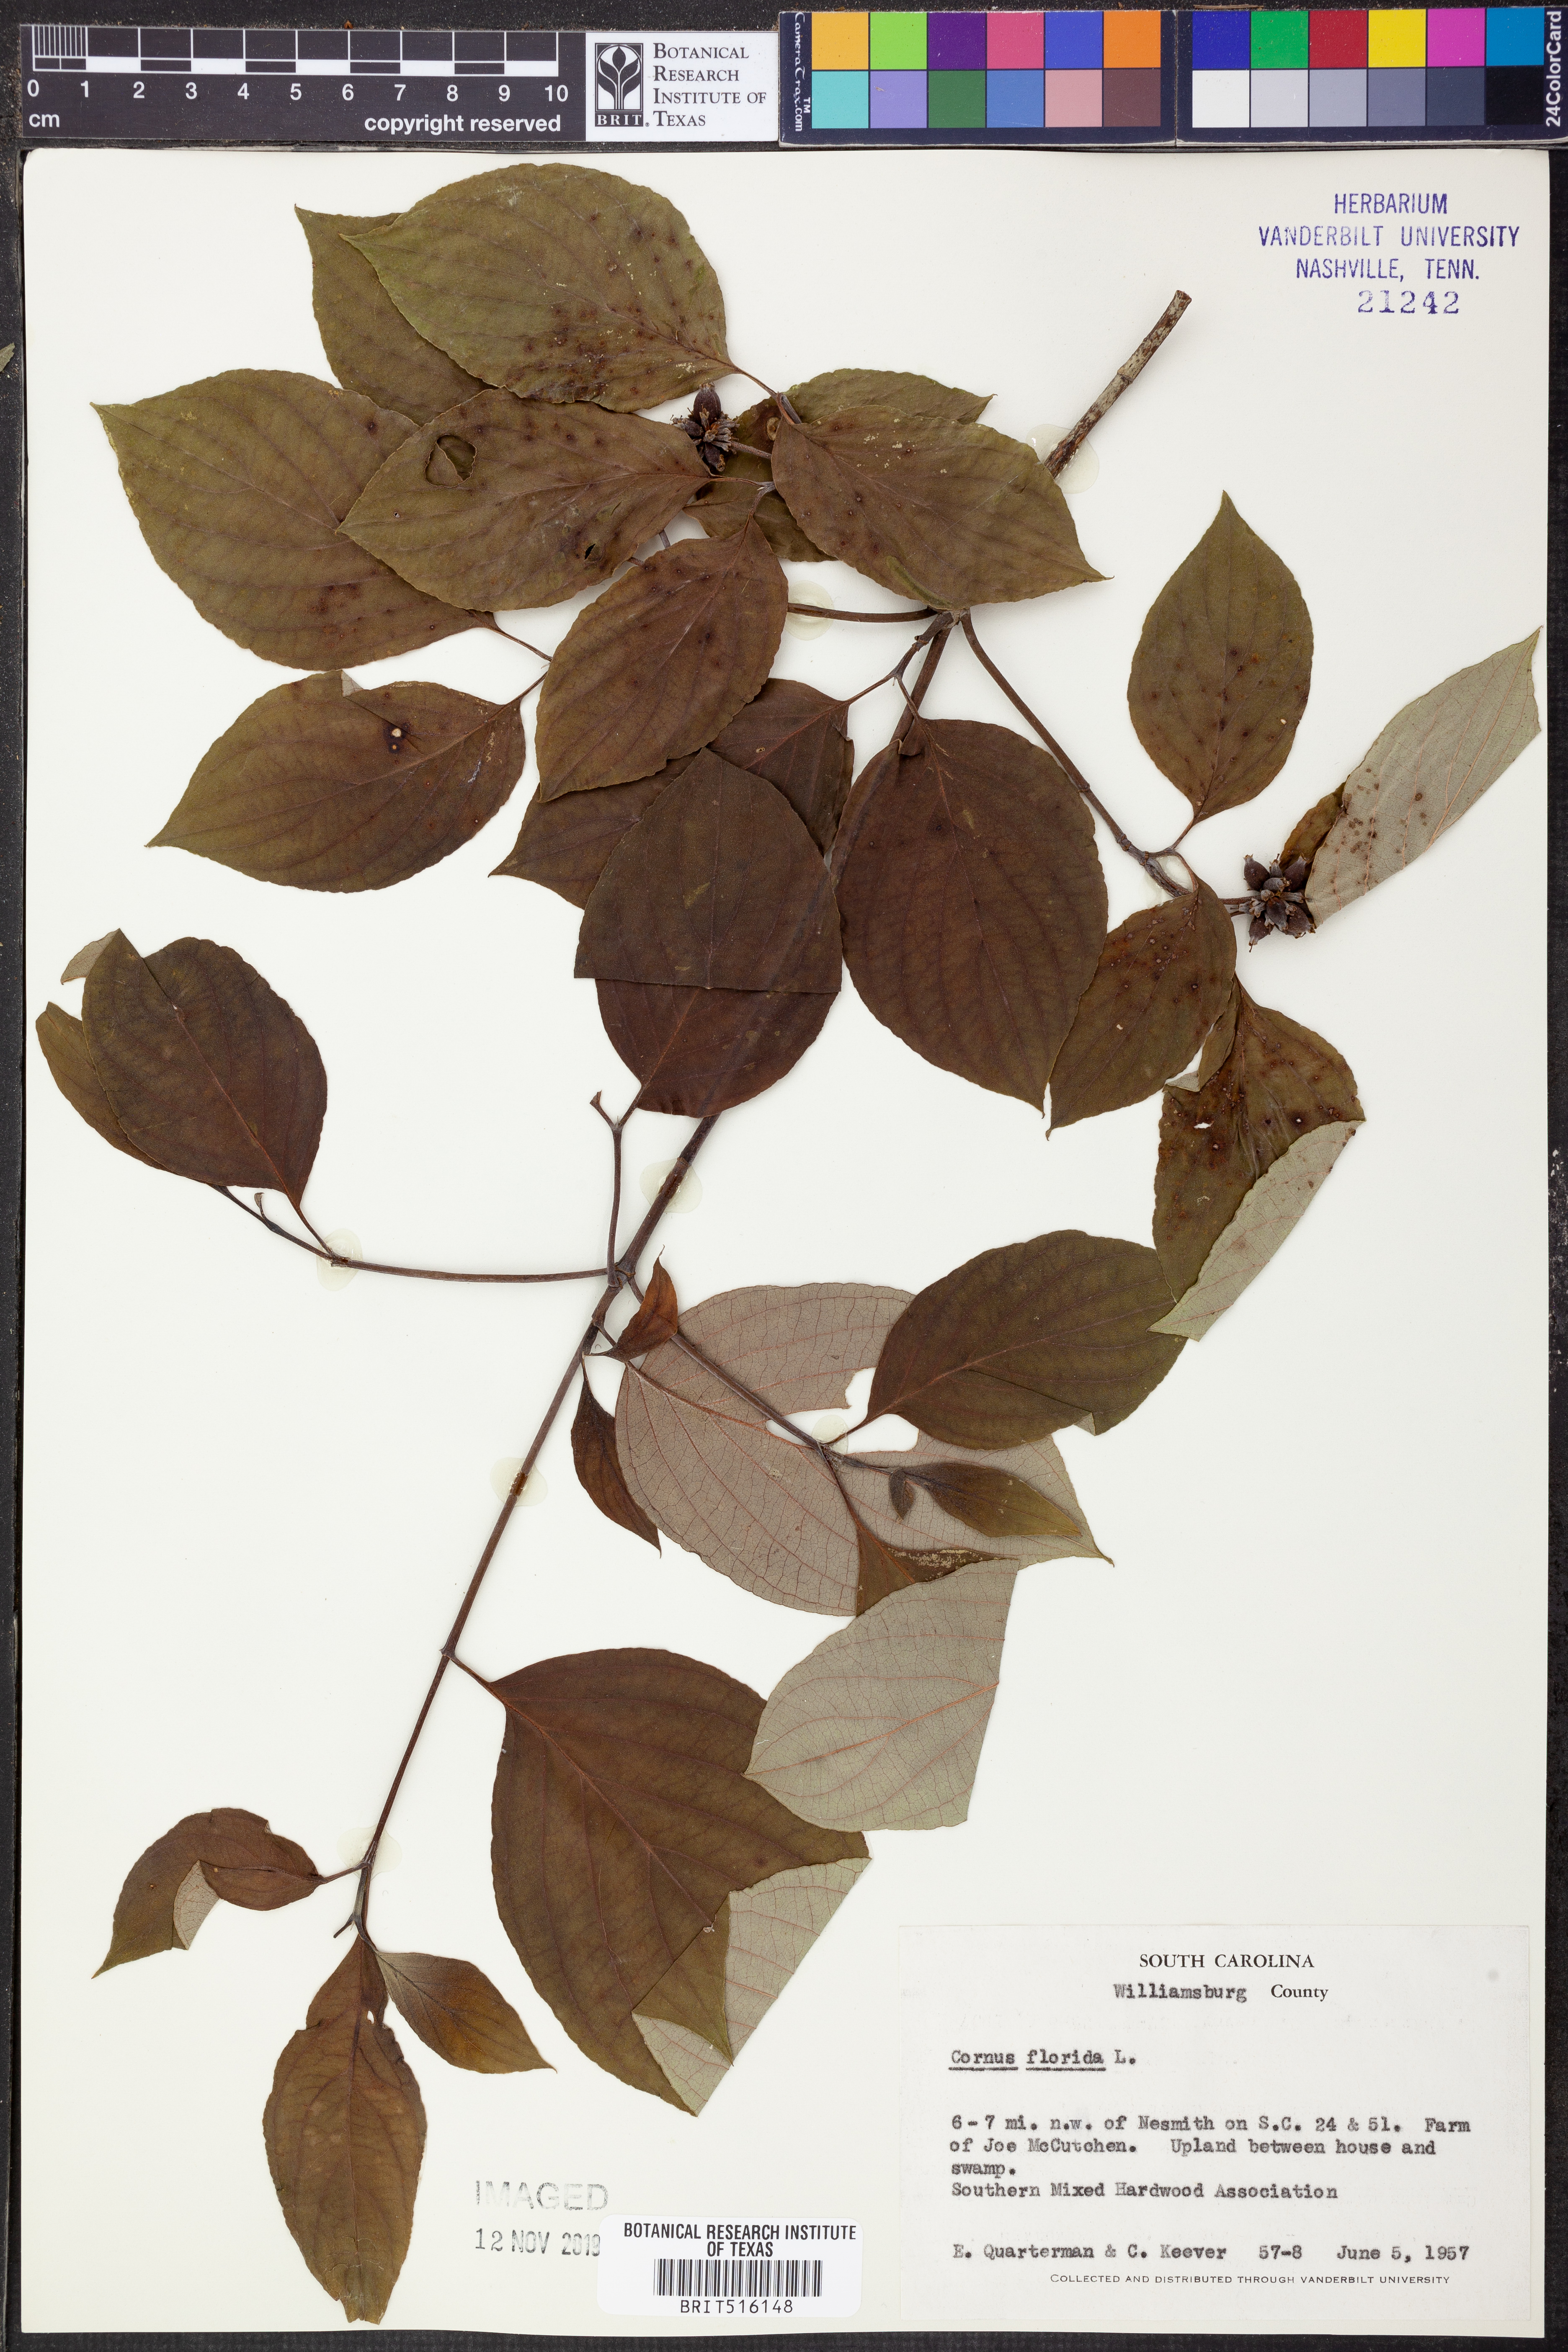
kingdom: Plantae
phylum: Tracheophyta
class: Magnoliopsida
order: Cornales
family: Cornaceae
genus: Cornus
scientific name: Cornus florida
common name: Flowering dogwood
